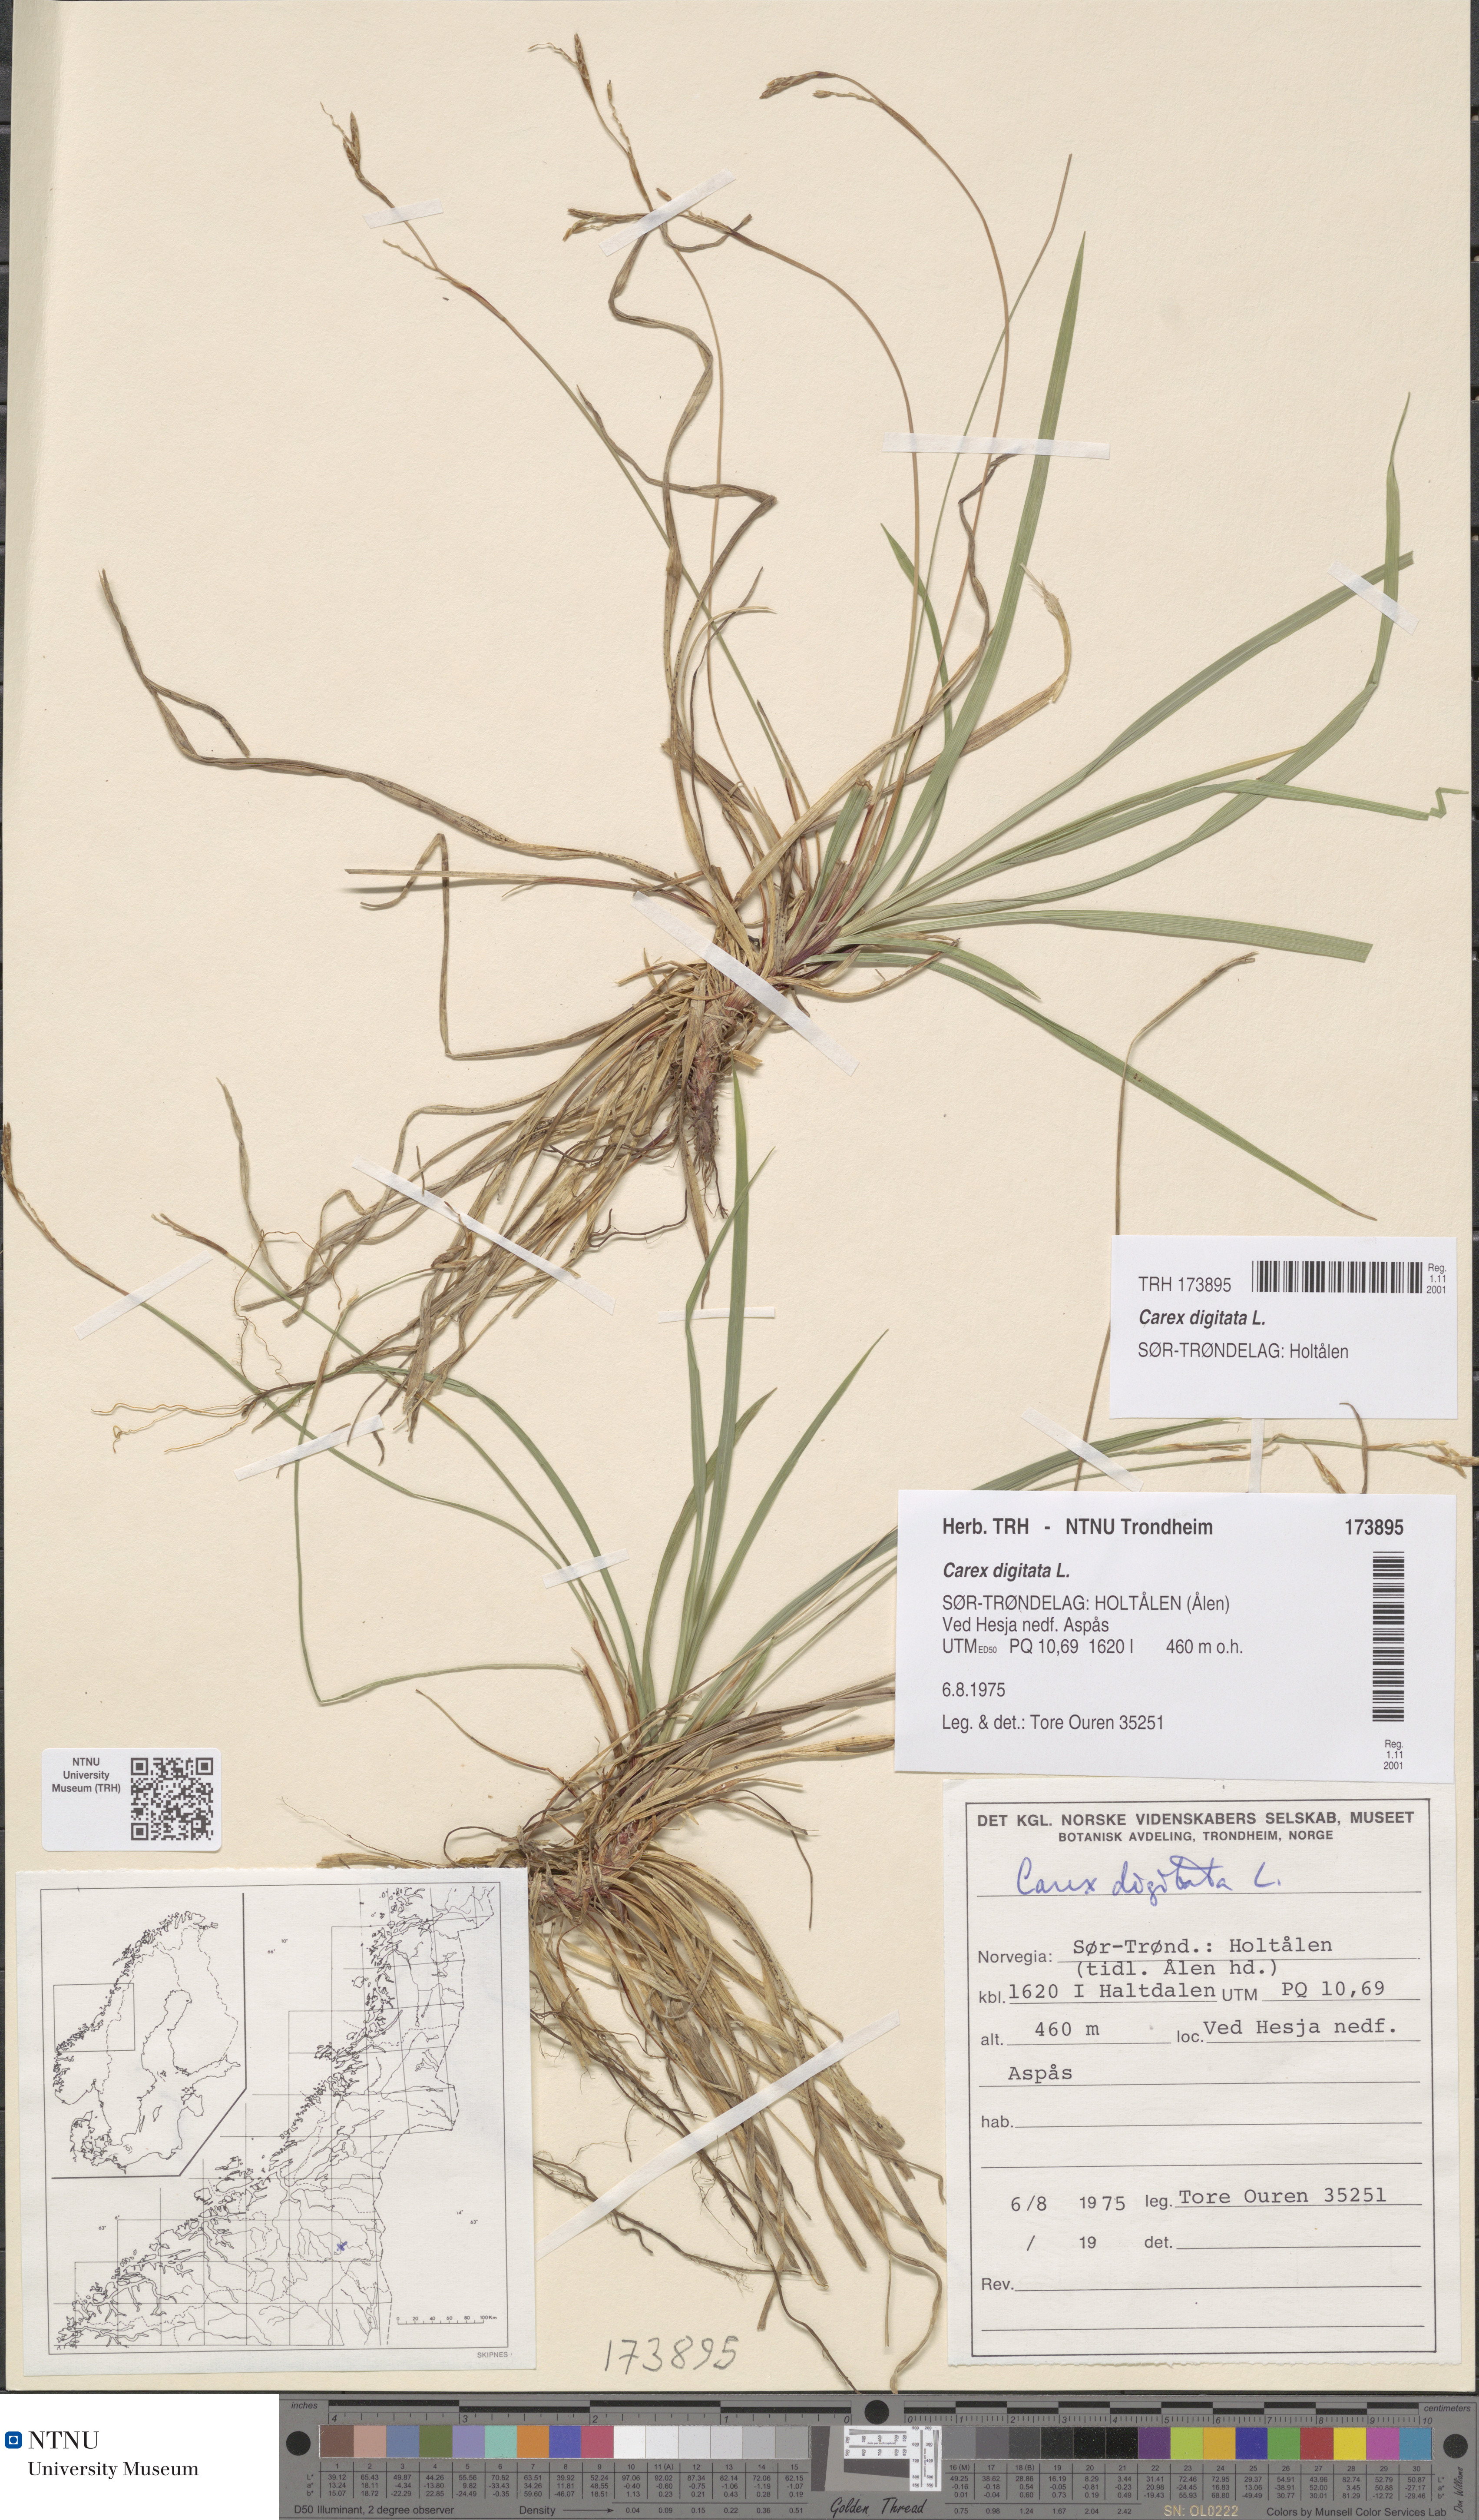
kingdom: Plantae
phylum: Tracheophyta
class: Liliopsida
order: Poales
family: Cyperaceae
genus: Carex
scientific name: Carex digitata
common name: Fingered sedge
